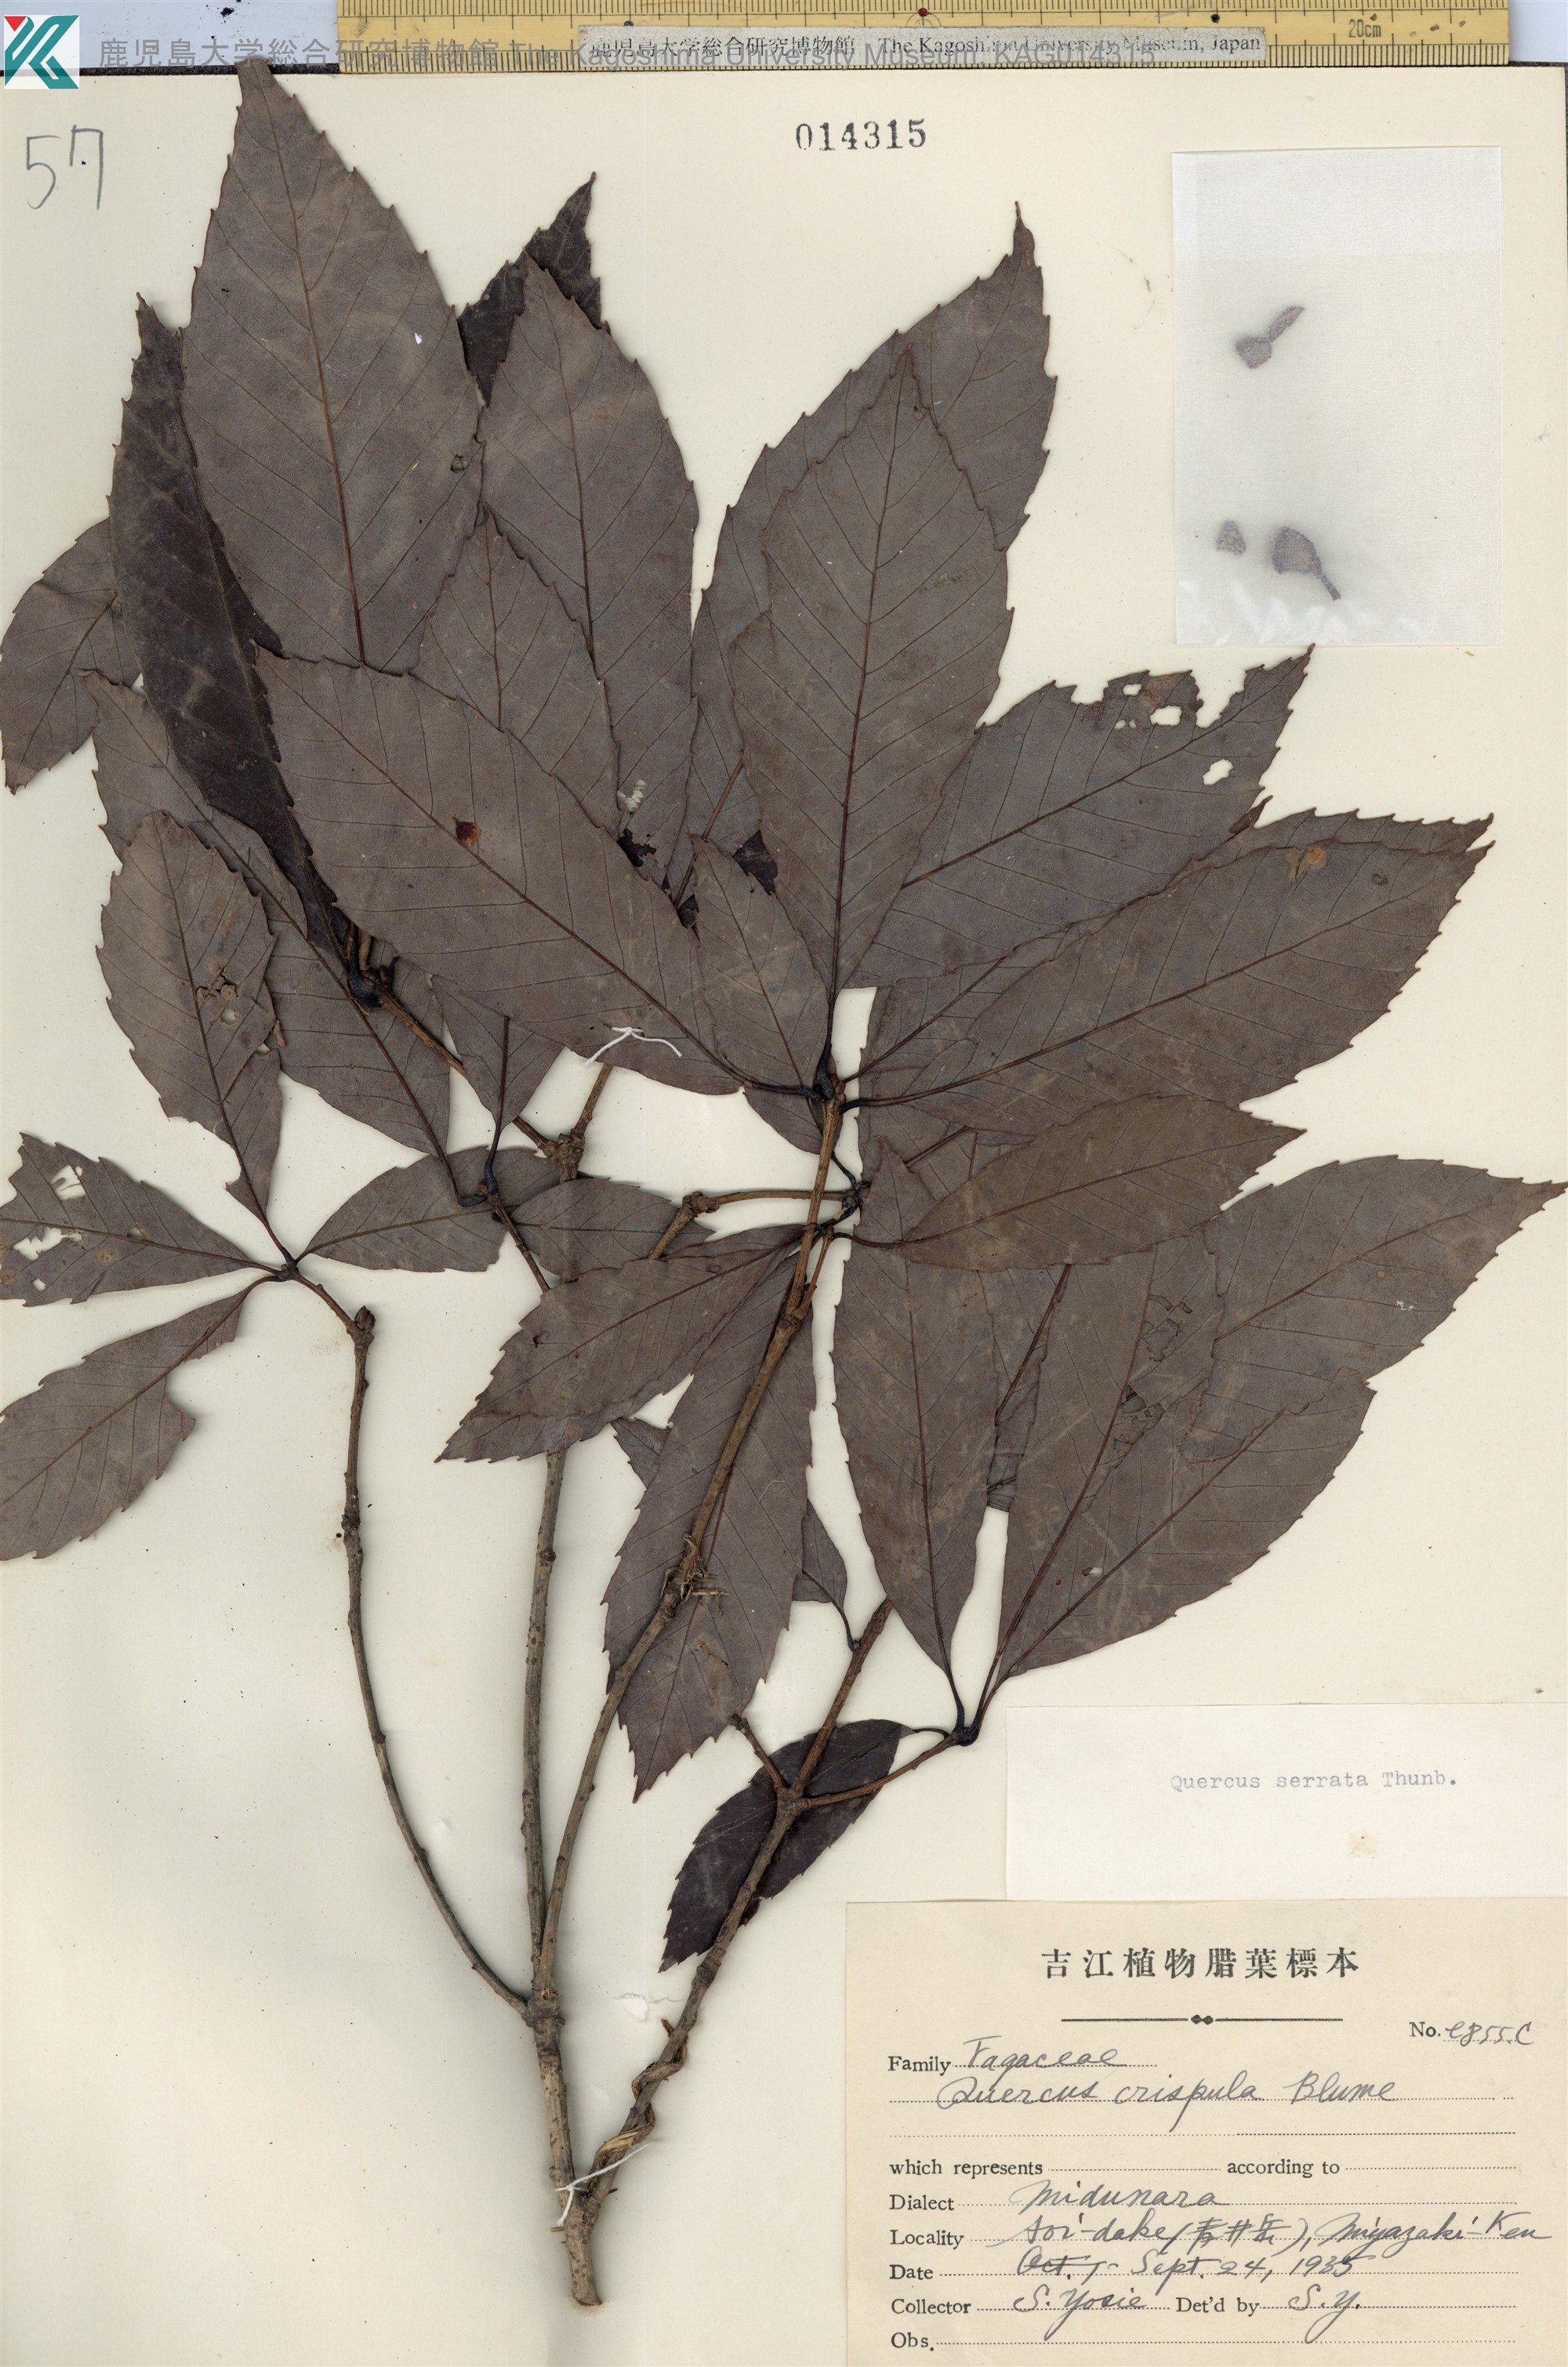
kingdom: Plantae
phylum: Tracheophyta
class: Magnoliopsida
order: Fagales
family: Fagaceae
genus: Quercus
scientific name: Quercus serrata
